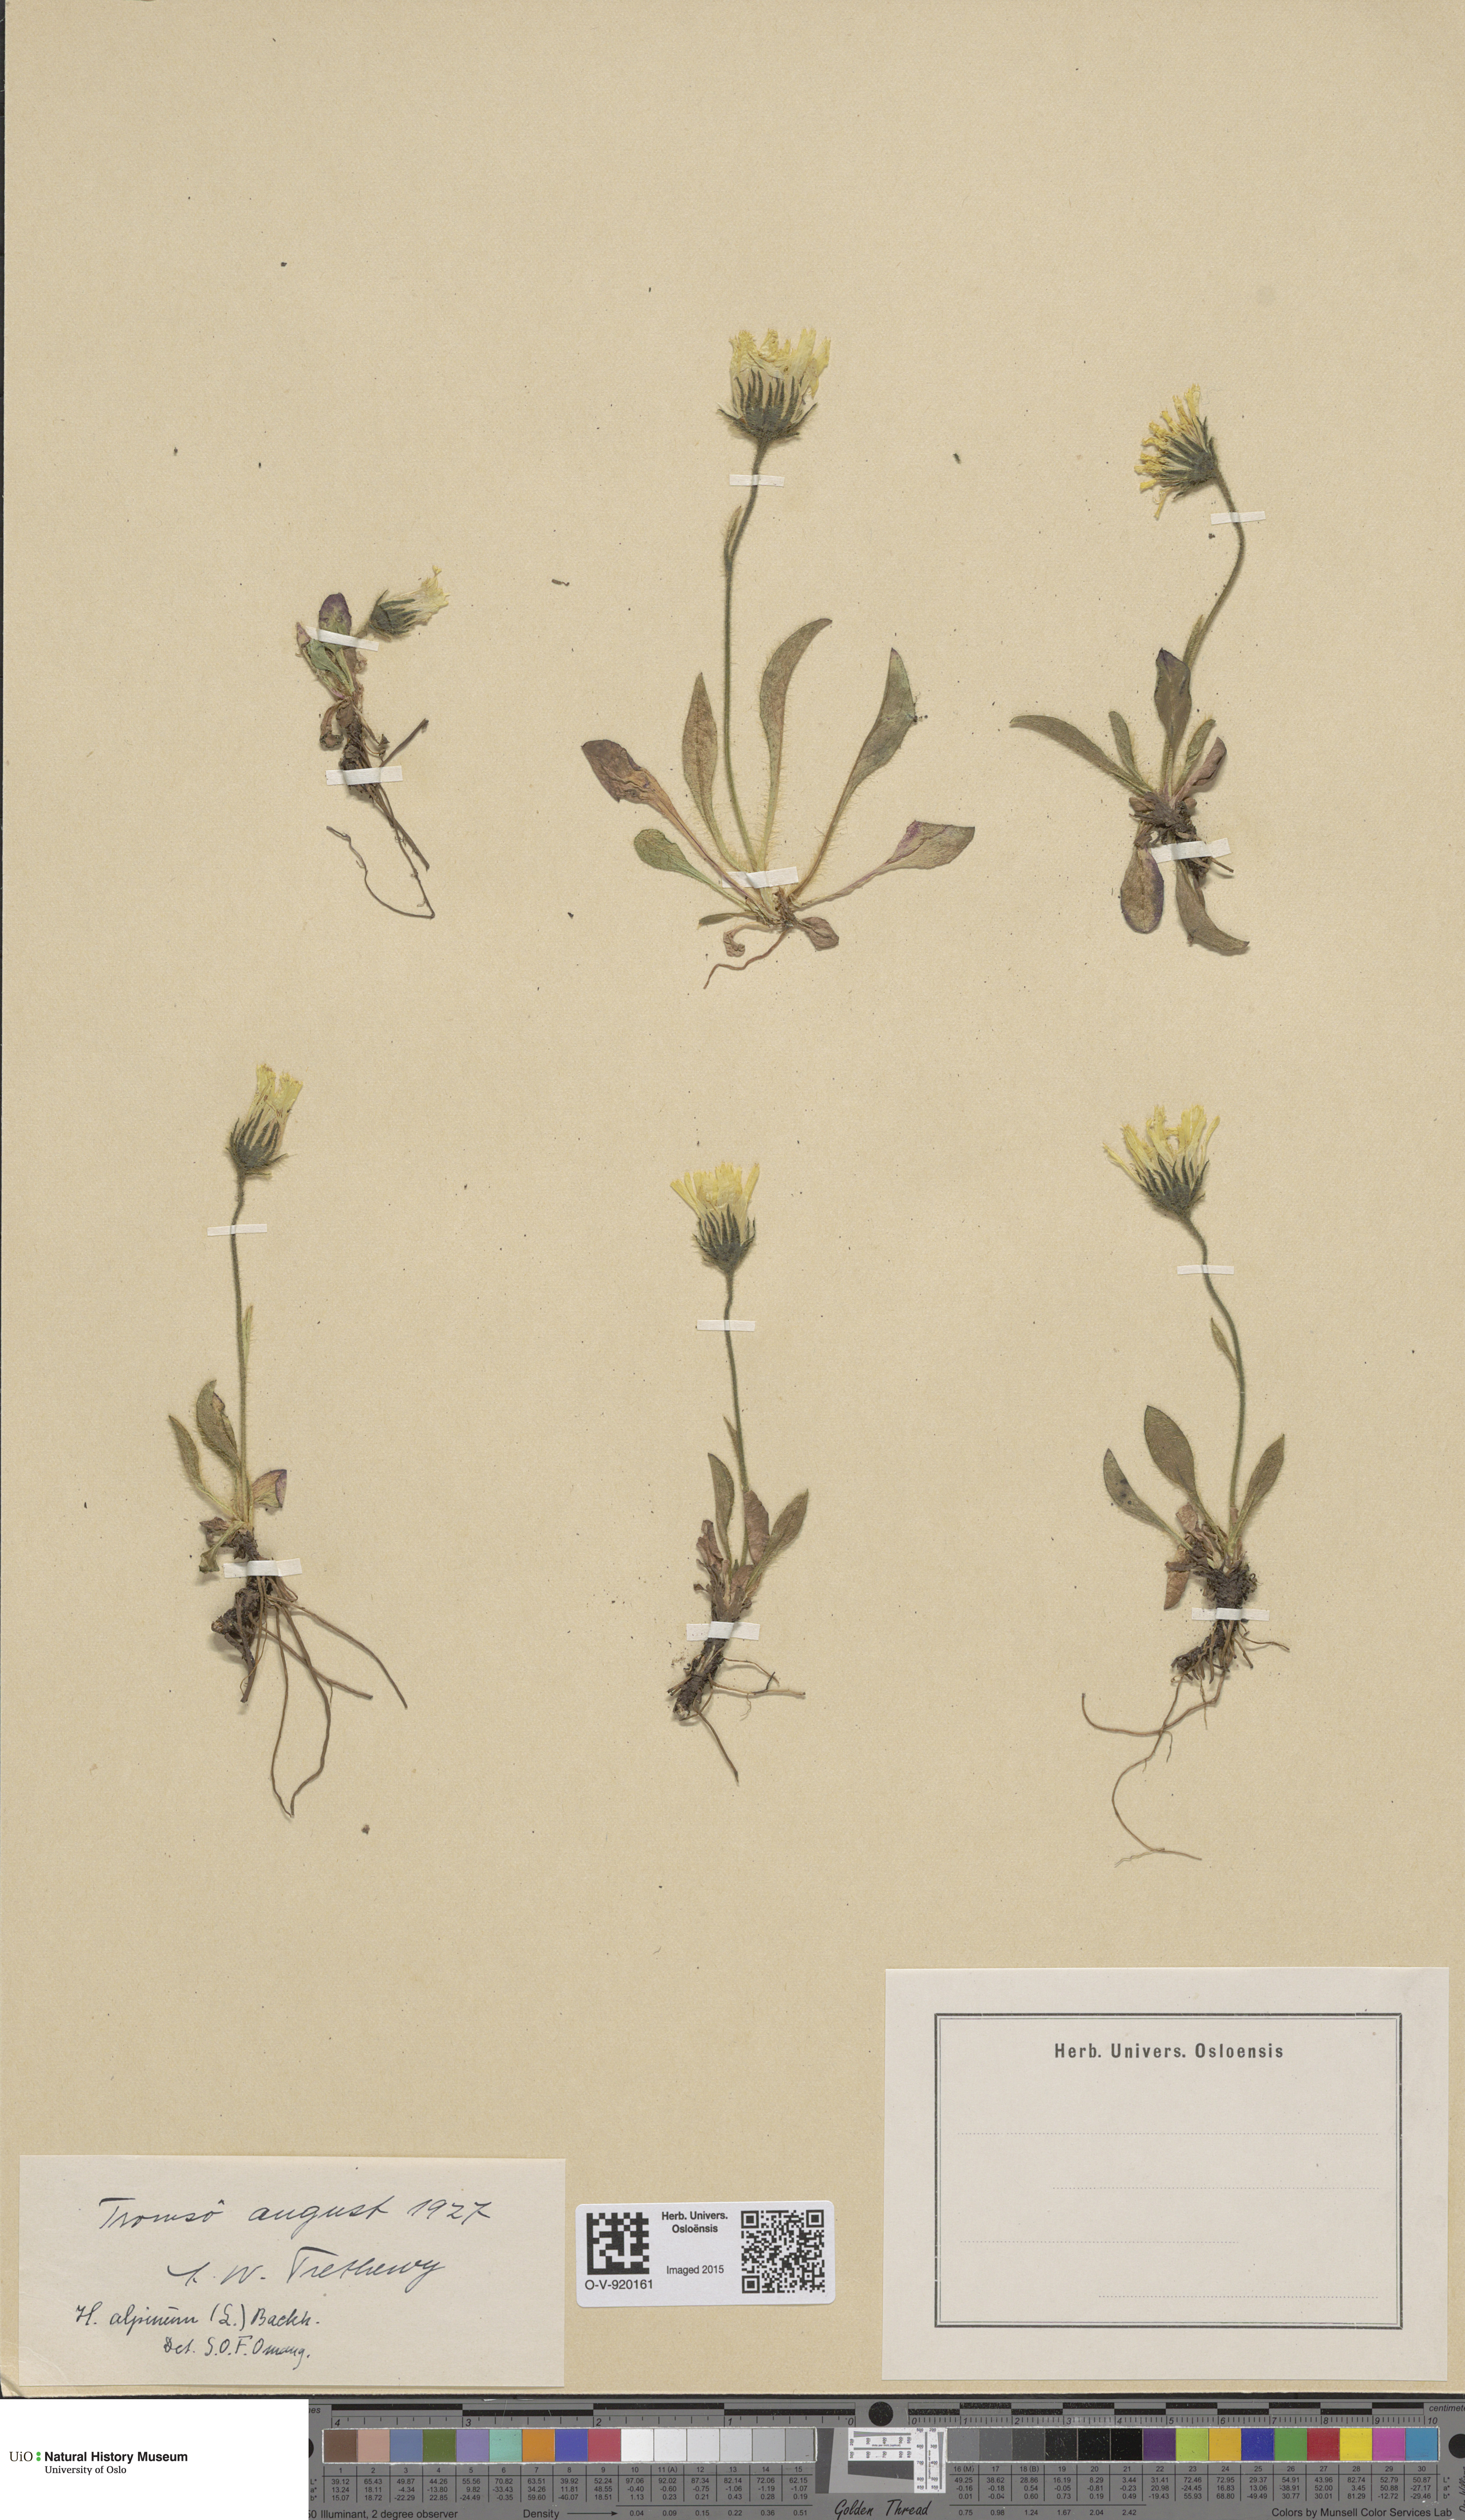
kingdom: Plantae
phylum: Tracheophyta
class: Magnoliopsida
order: Asterales
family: Asteraceae
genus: Hieracium
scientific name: Hieracium alpinum
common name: Alpine hawkweed
